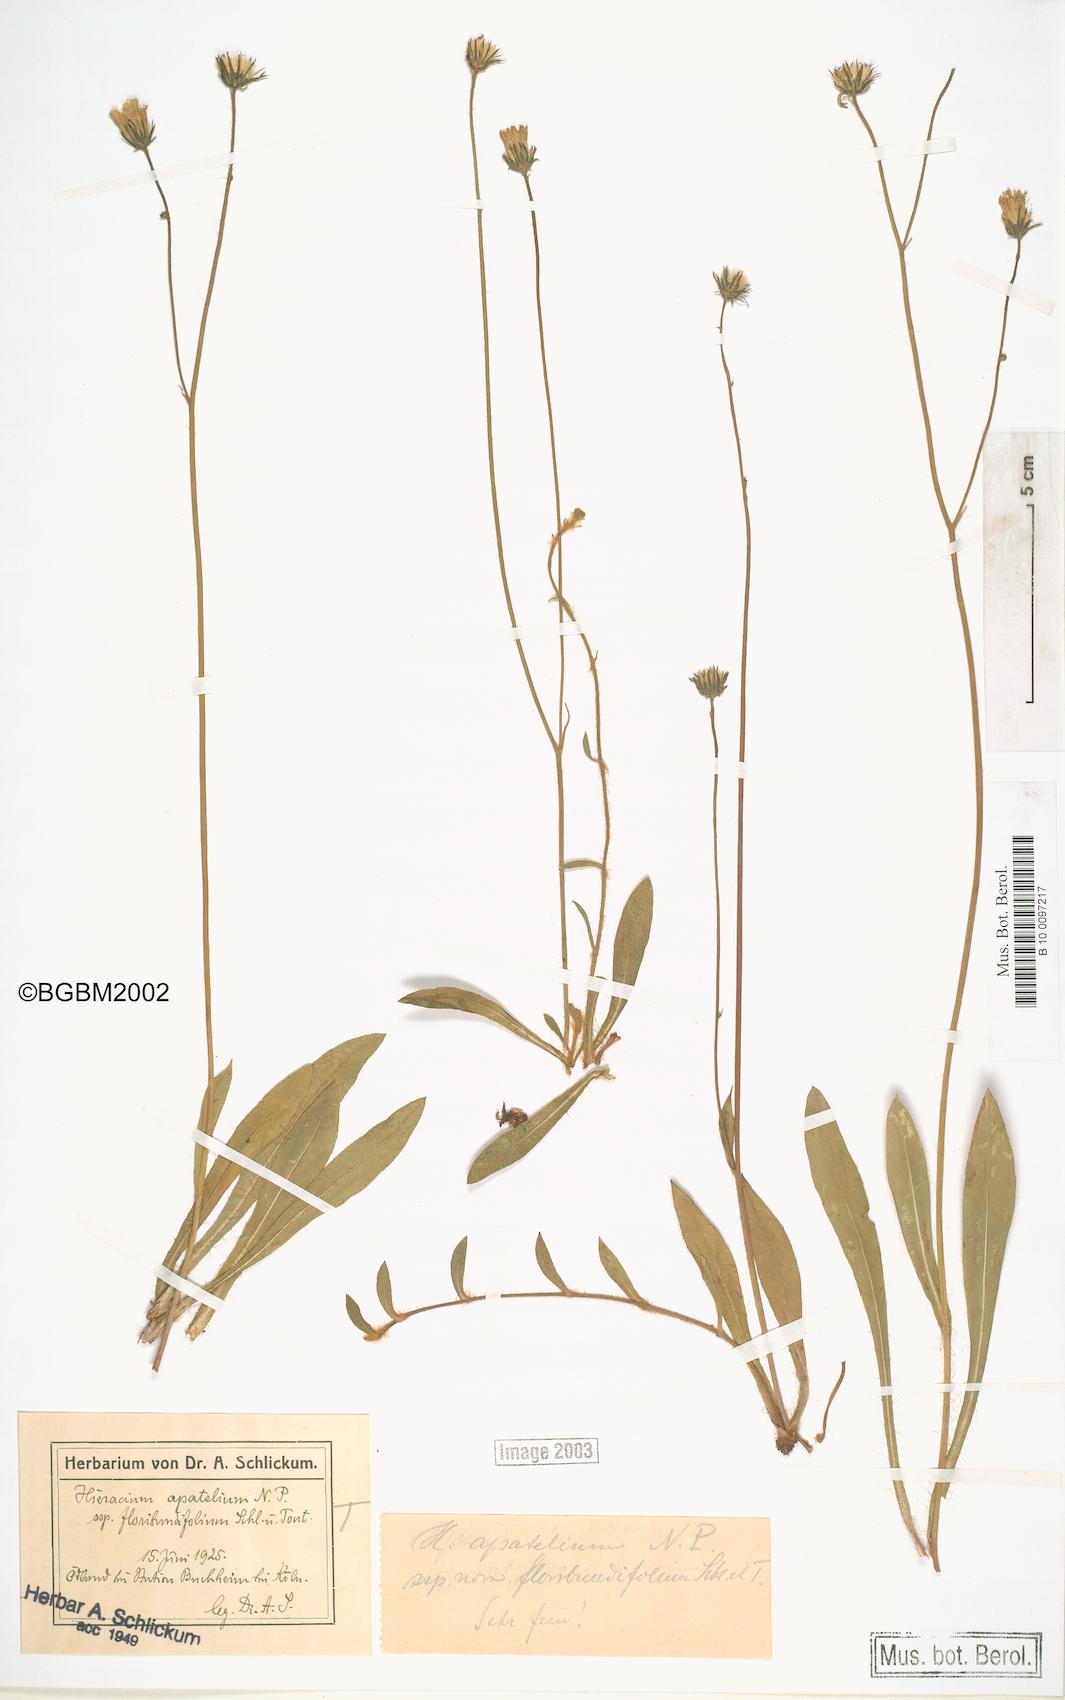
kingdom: Plantae
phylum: Tracheophyta
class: Magnoliopsida
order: Asterales
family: Asteraceae
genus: Pilosella
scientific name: Pilosella apatelia
